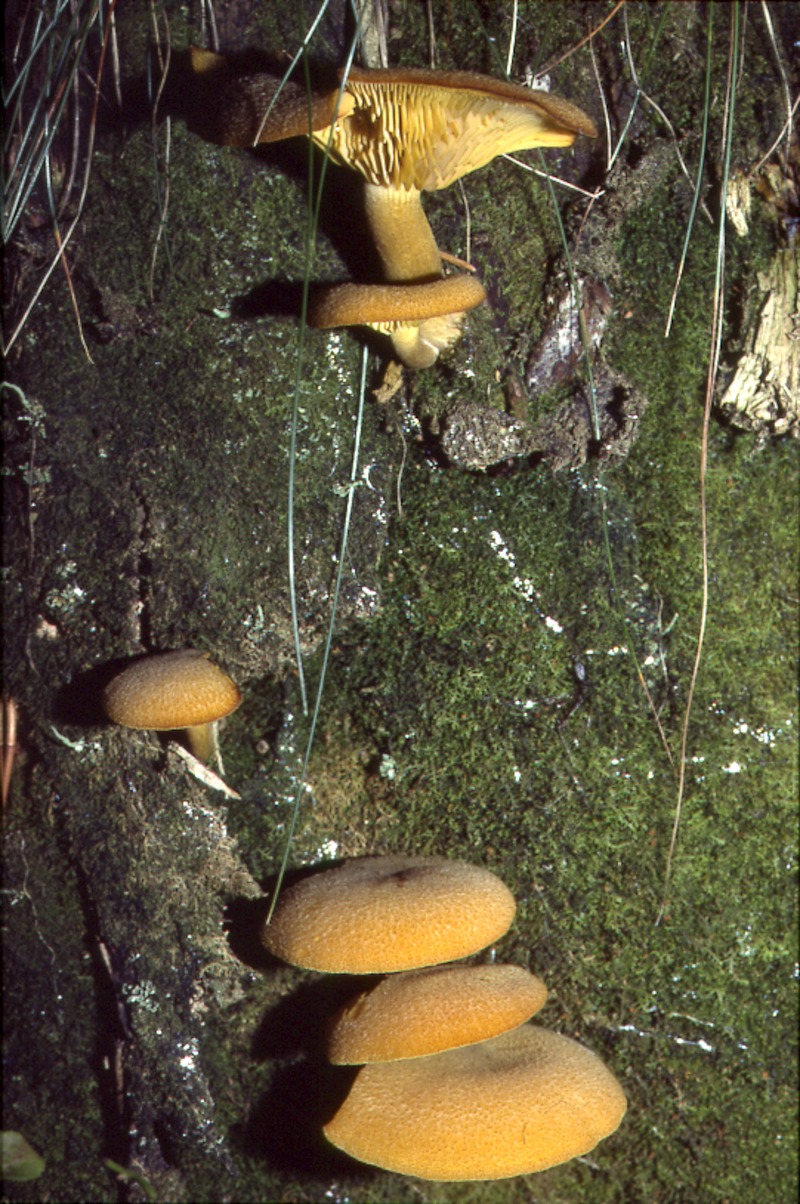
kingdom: Plantae
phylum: Tracheophyta
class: Pinopsida
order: Pinales
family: Pinaceae
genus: Picea
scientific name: Picea abies
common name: Norway spruce
